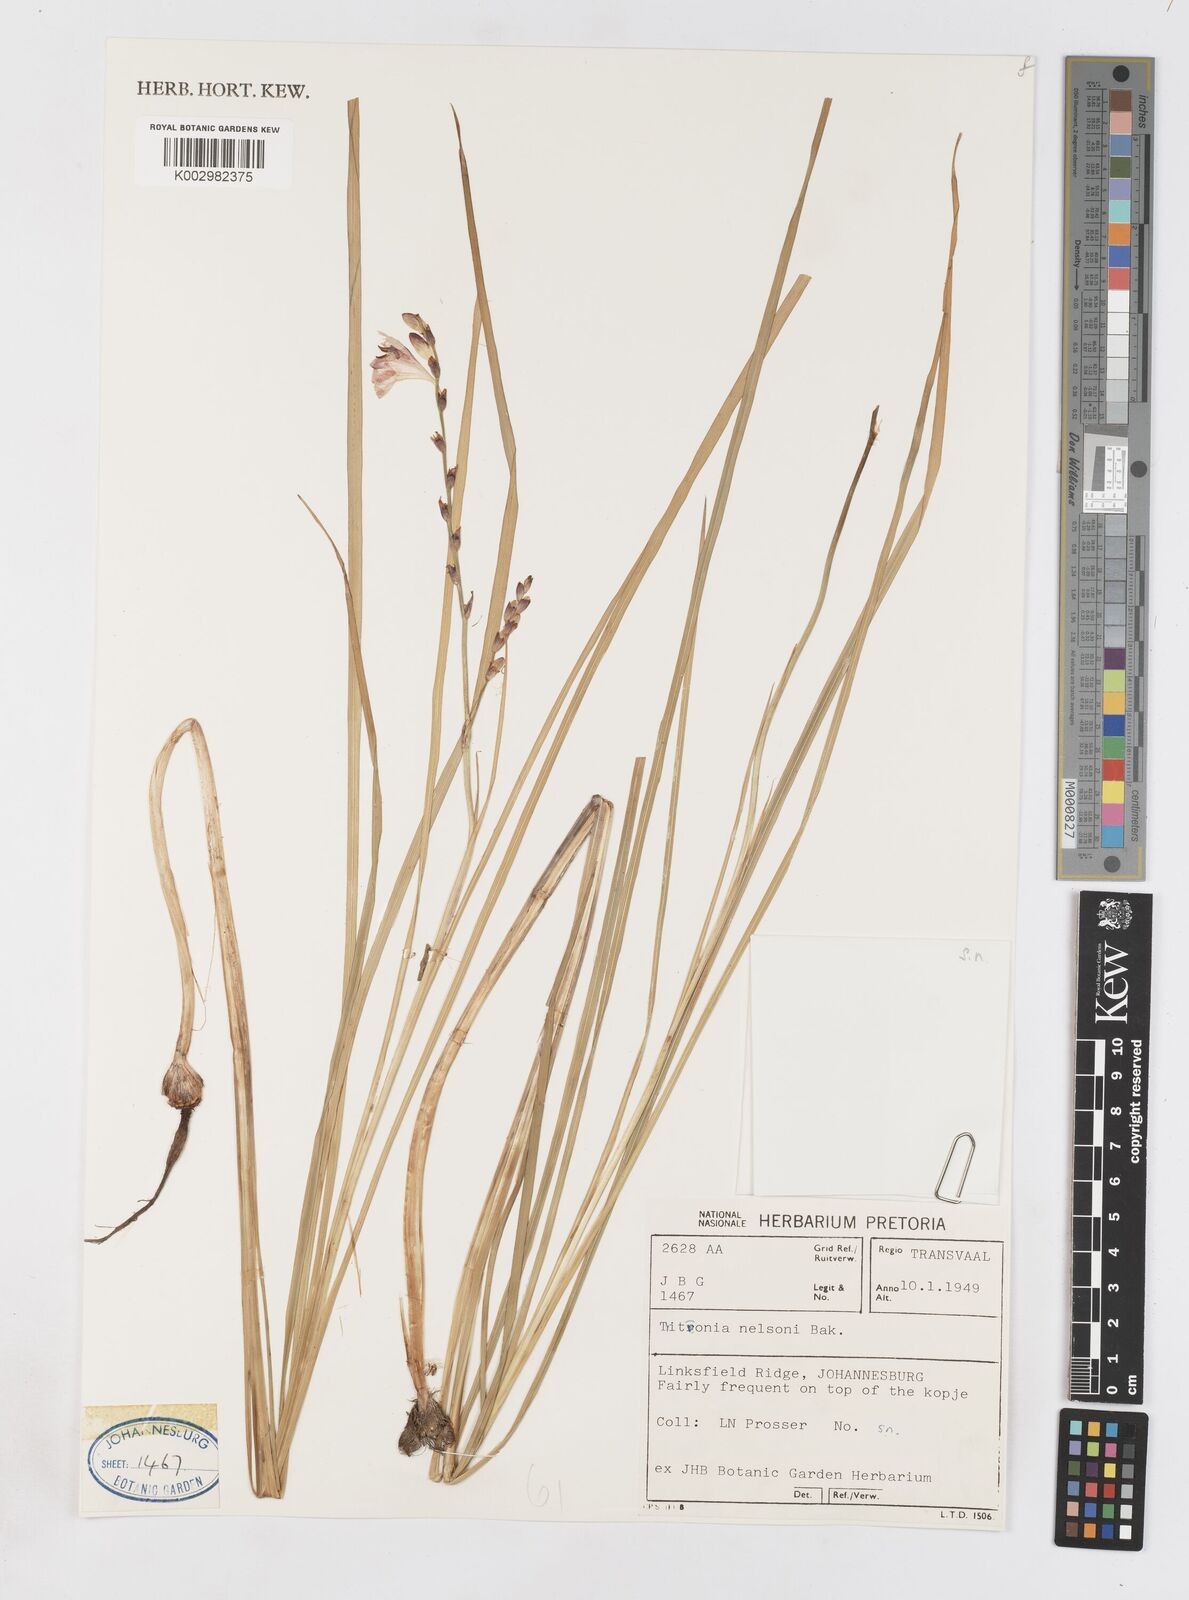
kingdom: Plantae
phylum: Tracheophyta
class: Liliopsida
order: Asparagales
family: Iridaceae
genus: Tritonia
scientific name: Tritonia nelsonii
